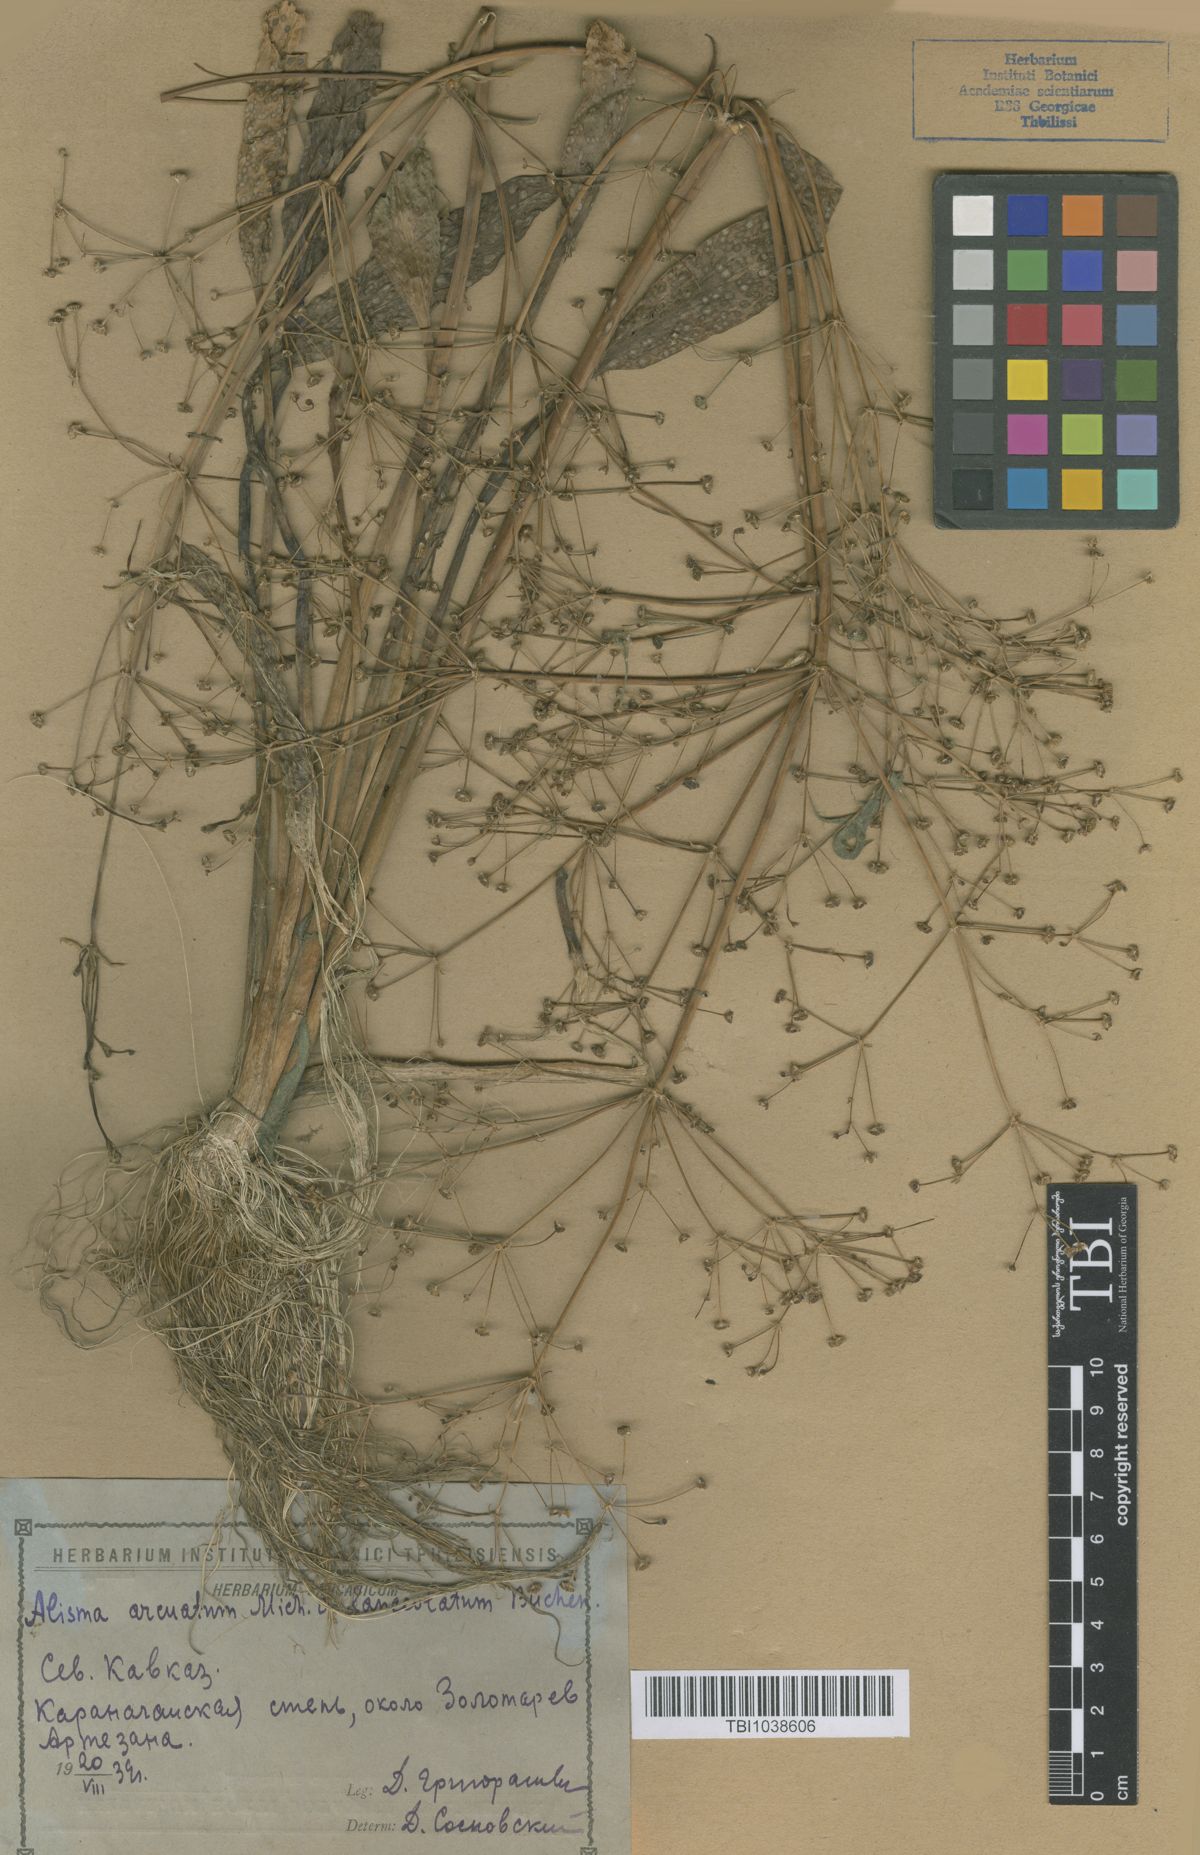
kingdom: Plantae
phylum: Tracheophyta
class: Liliopsida
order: Alismatales
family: Alismataceae
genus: Alisma
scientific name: Alisma gramineum
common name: Ribbon-leaved water-plantain
